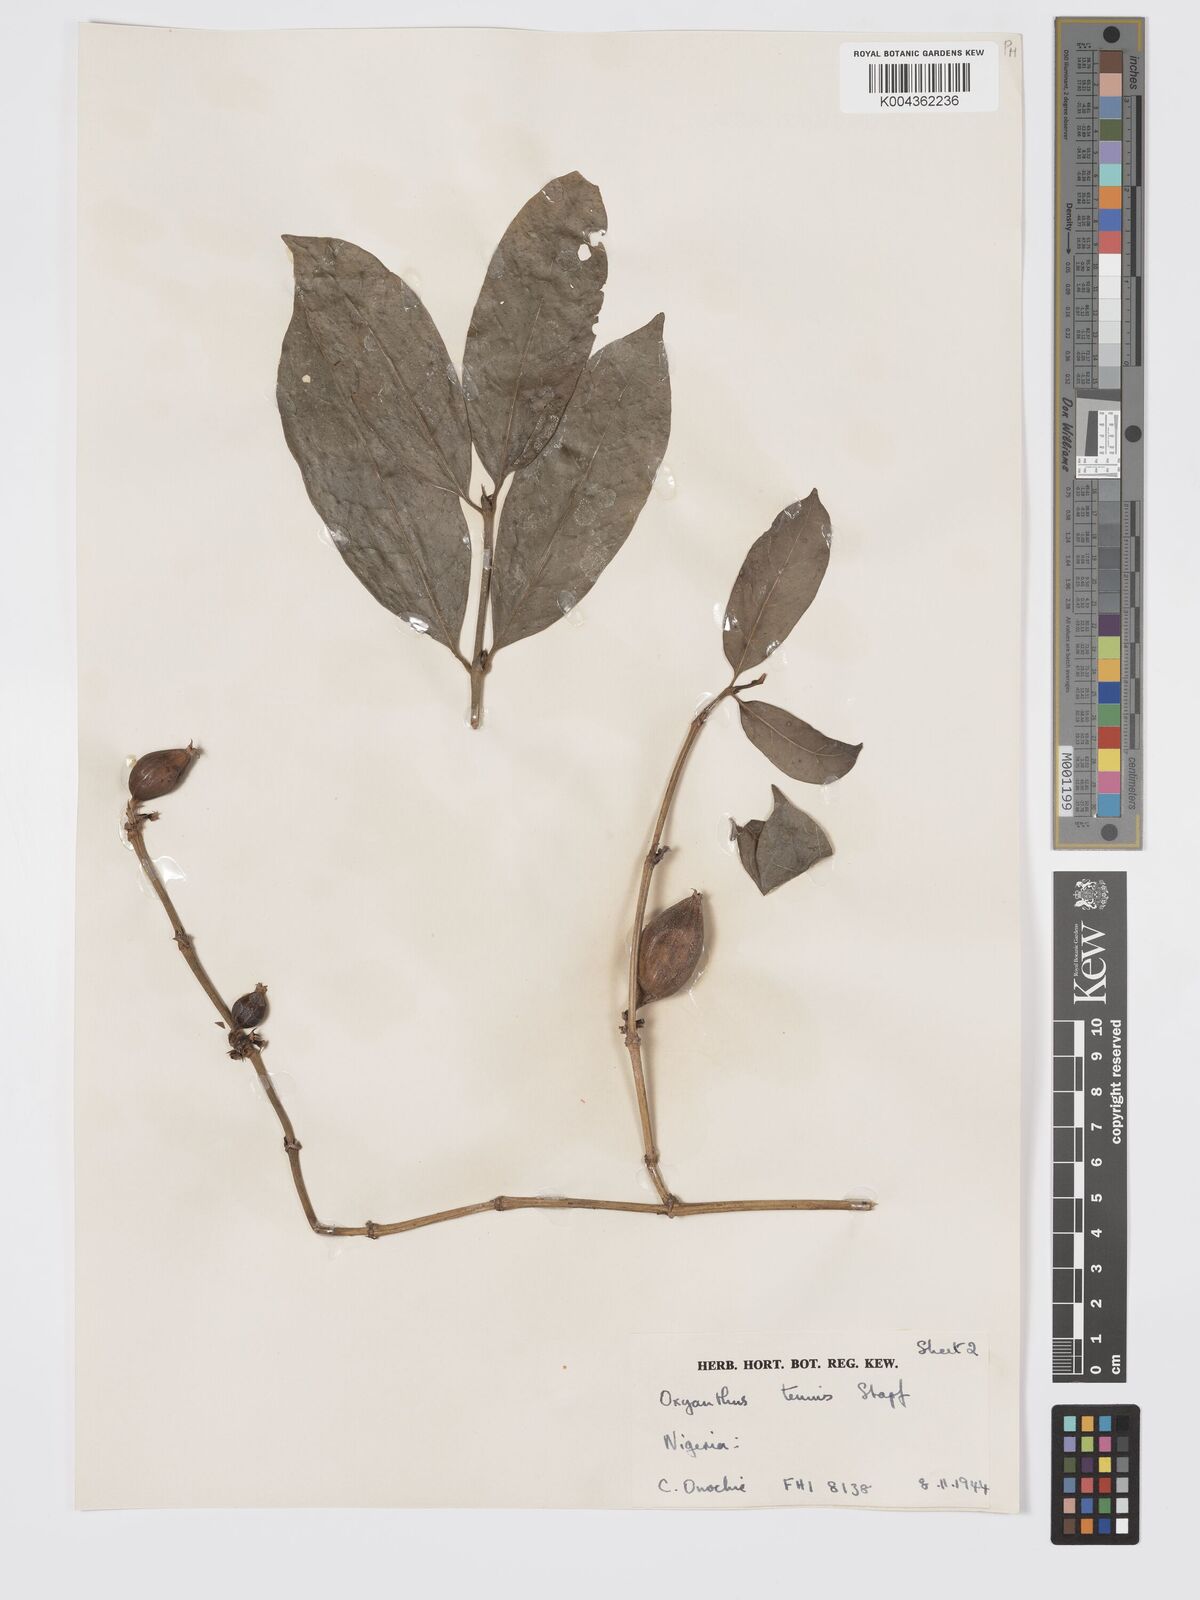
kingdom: Plantae
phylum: Tracheophyta
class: Magnoliopsida
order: Gentianales
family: Rubiaceae
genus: Oxyanthus
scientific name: Oxyanthus subpunctatus
